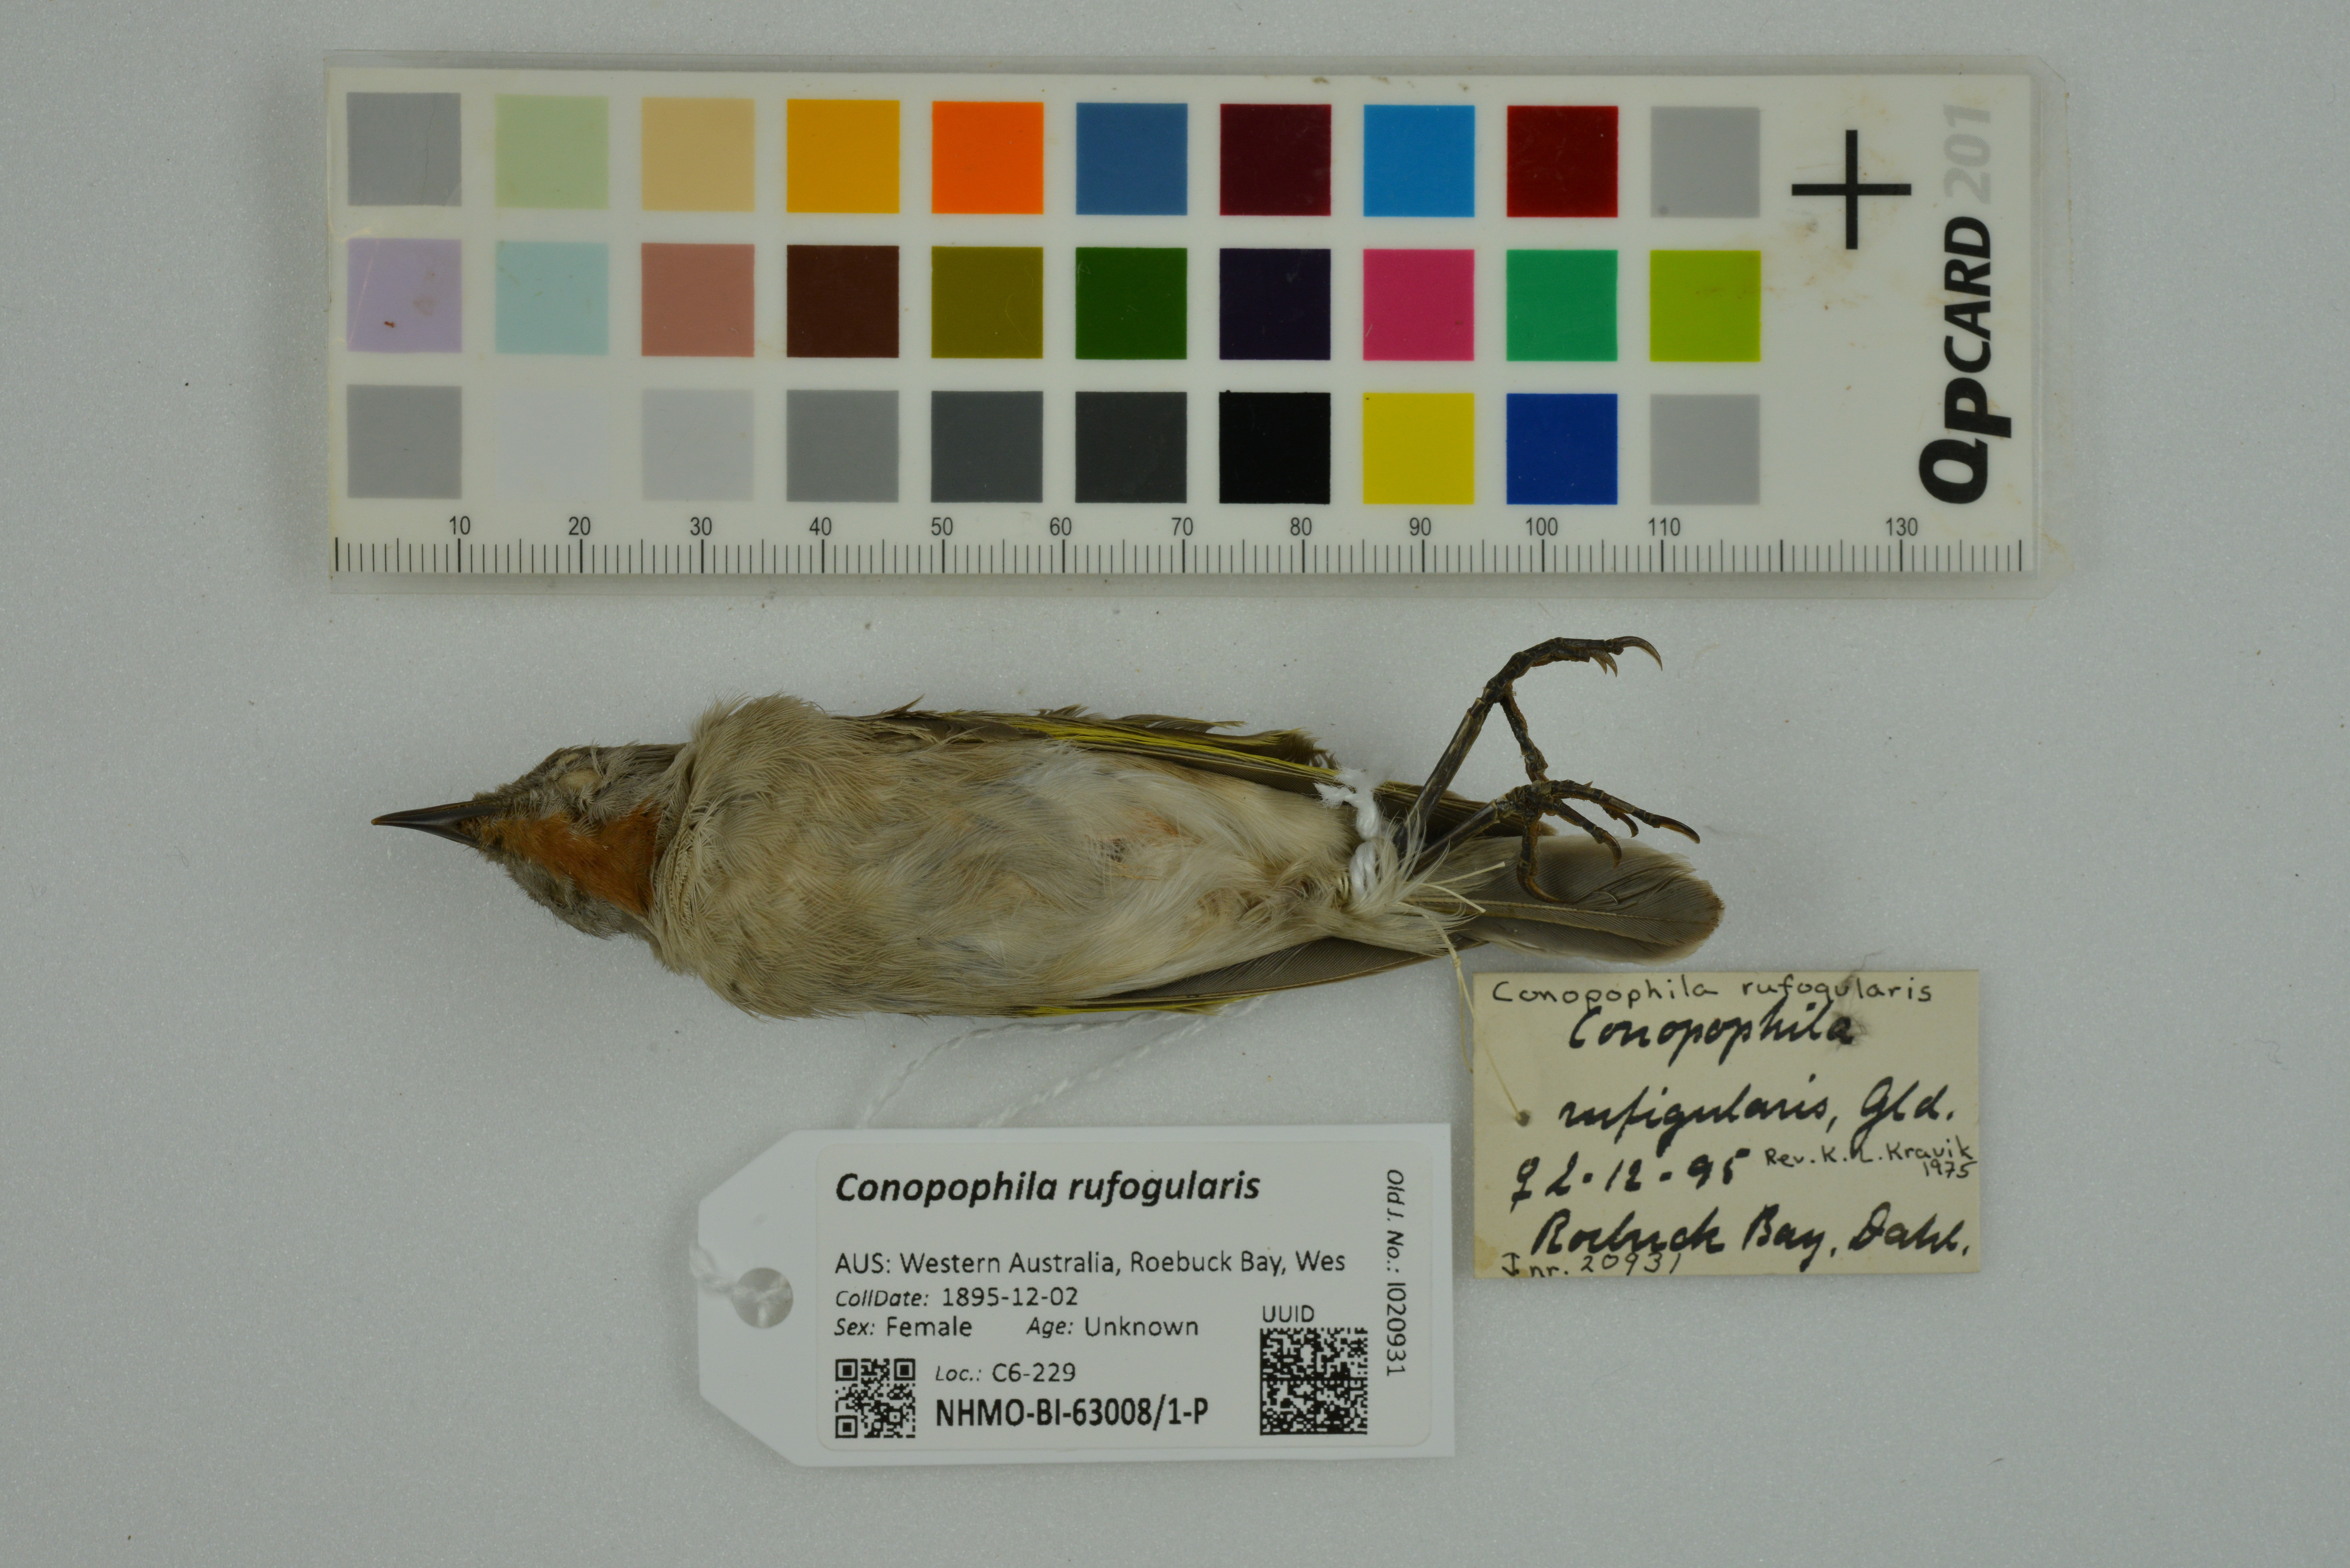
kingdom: Animalia
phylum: Chordata
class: Aves
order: Passeriformes
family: Meliphagidae
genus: Conopophila
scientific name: Conopophila rufogularis
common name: Rufous-throated honeyeater
